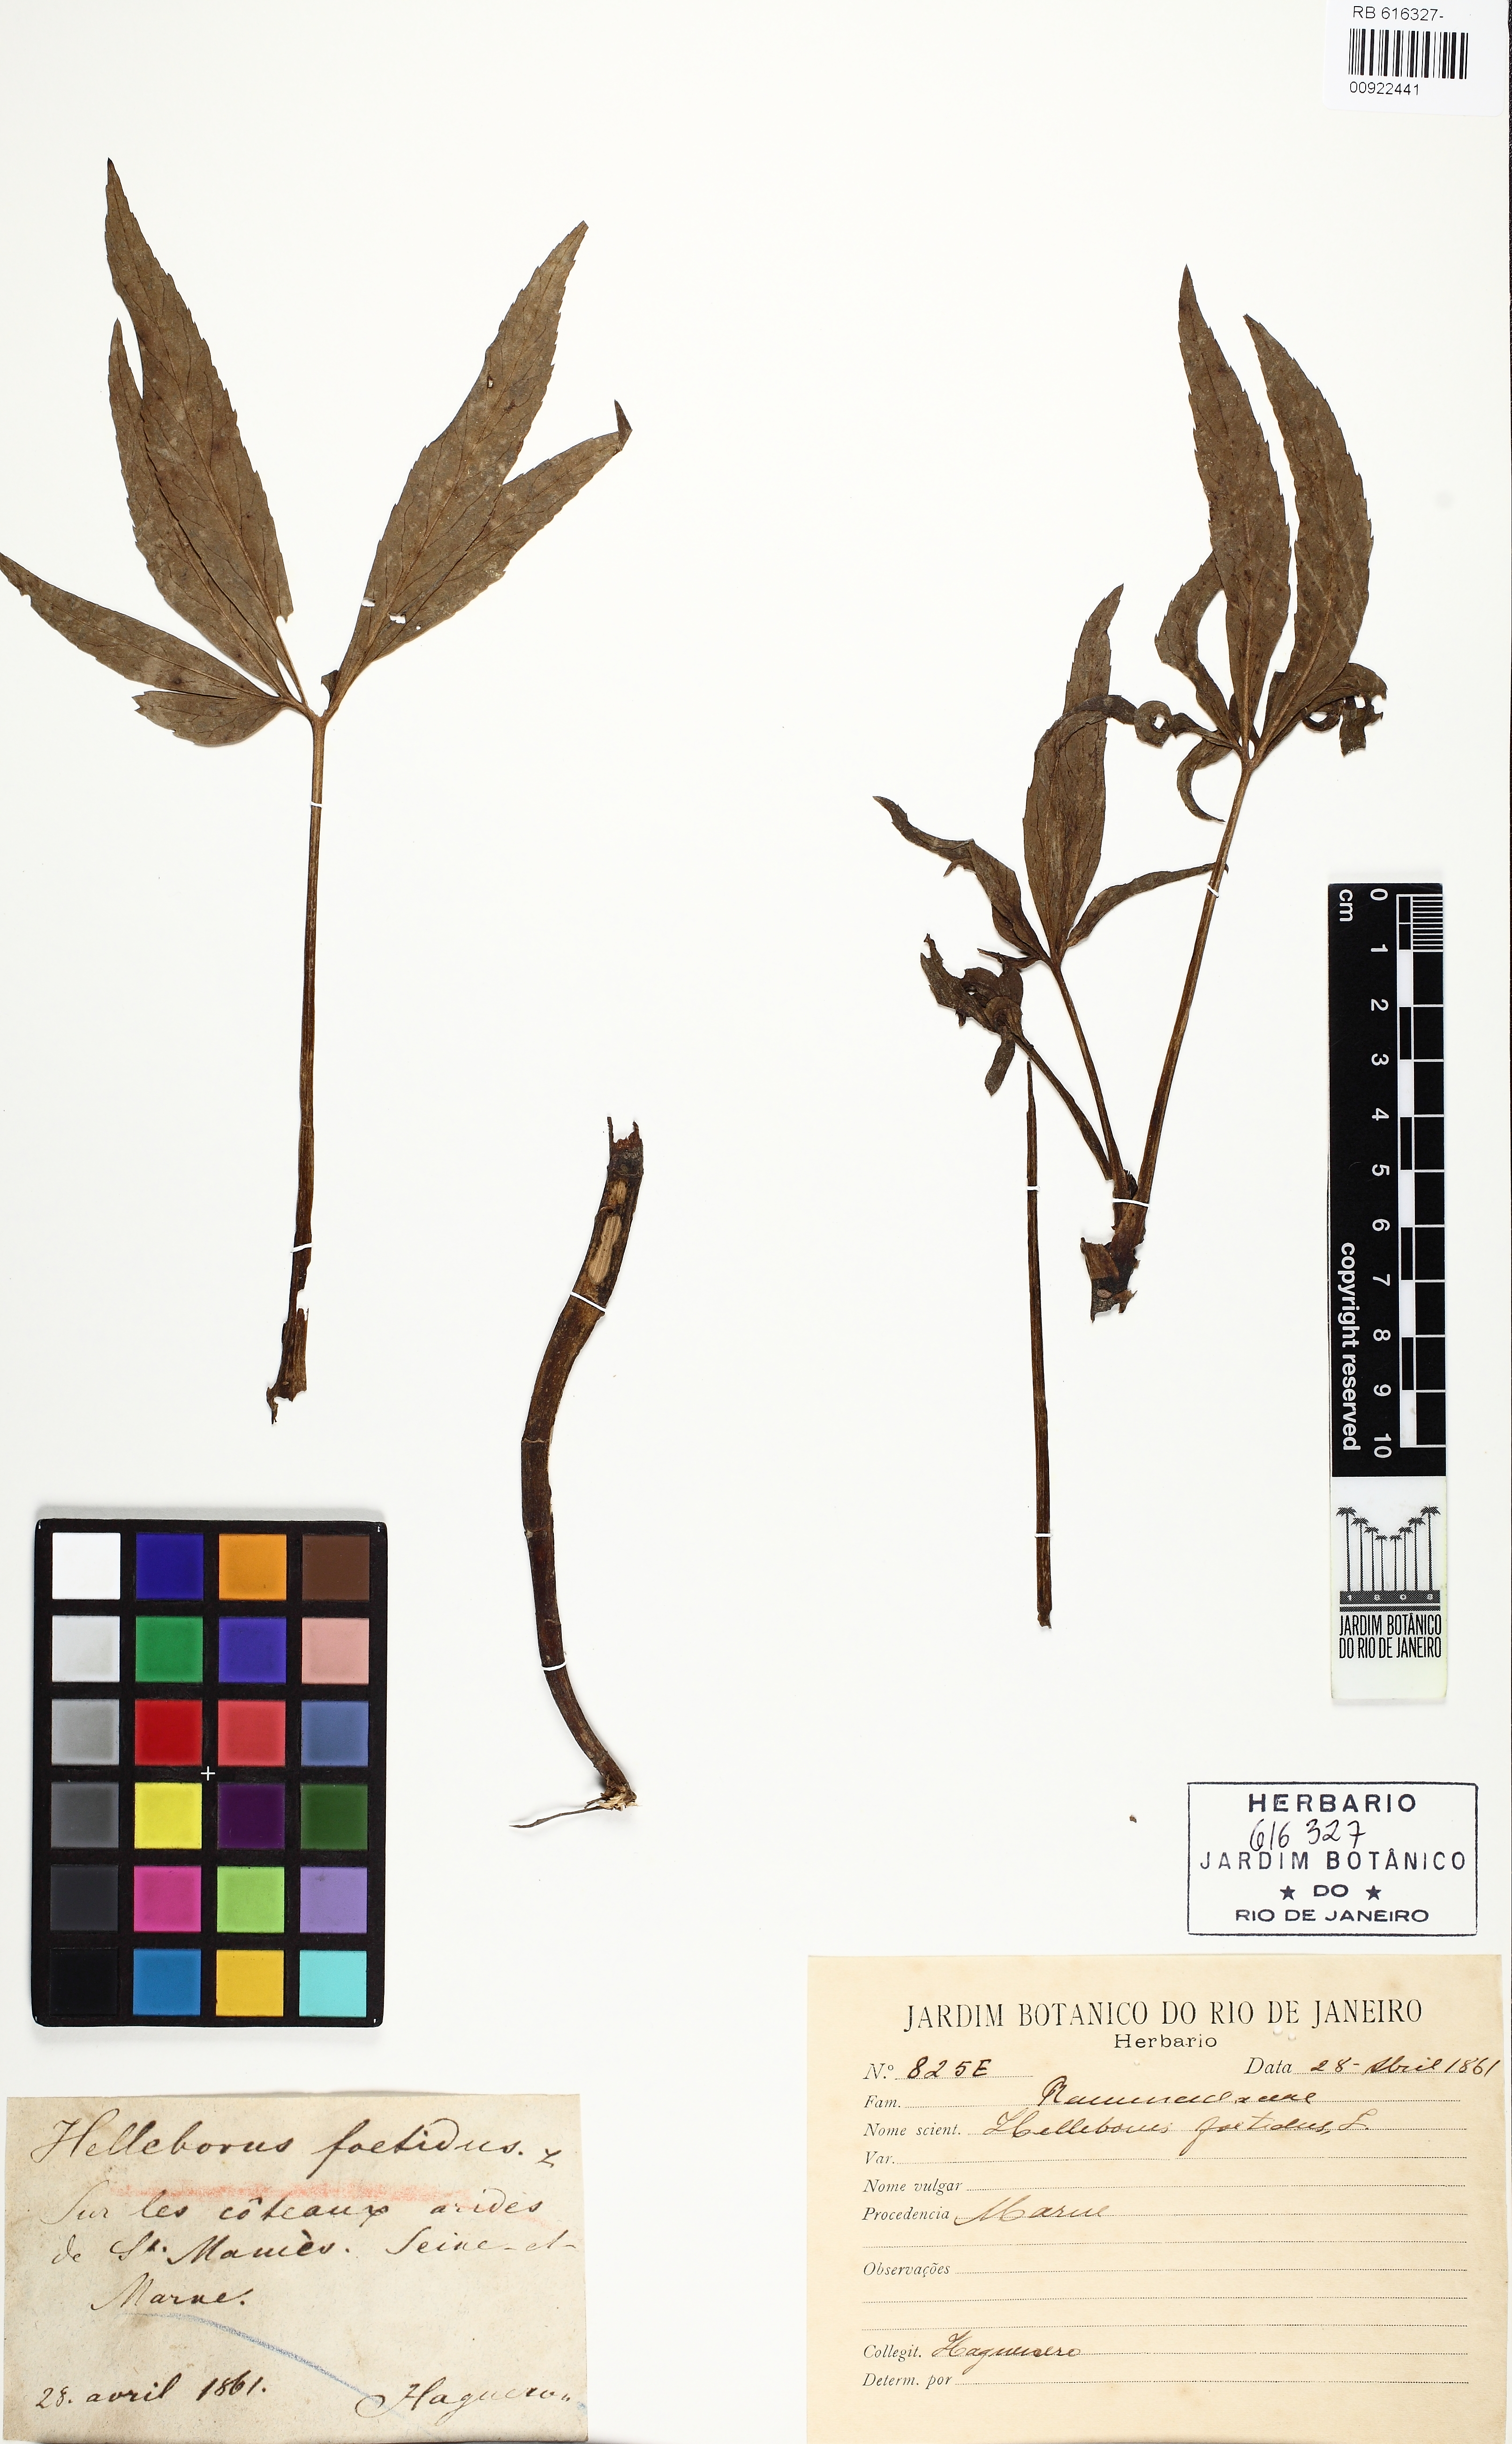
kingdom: Plantae
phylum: Tracheophyta
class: Magnoliopsida
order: Ranunculales
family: Ranunculaceae
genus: Helleborus
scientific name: Helleborus foetidus
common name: Stinking hellebore
